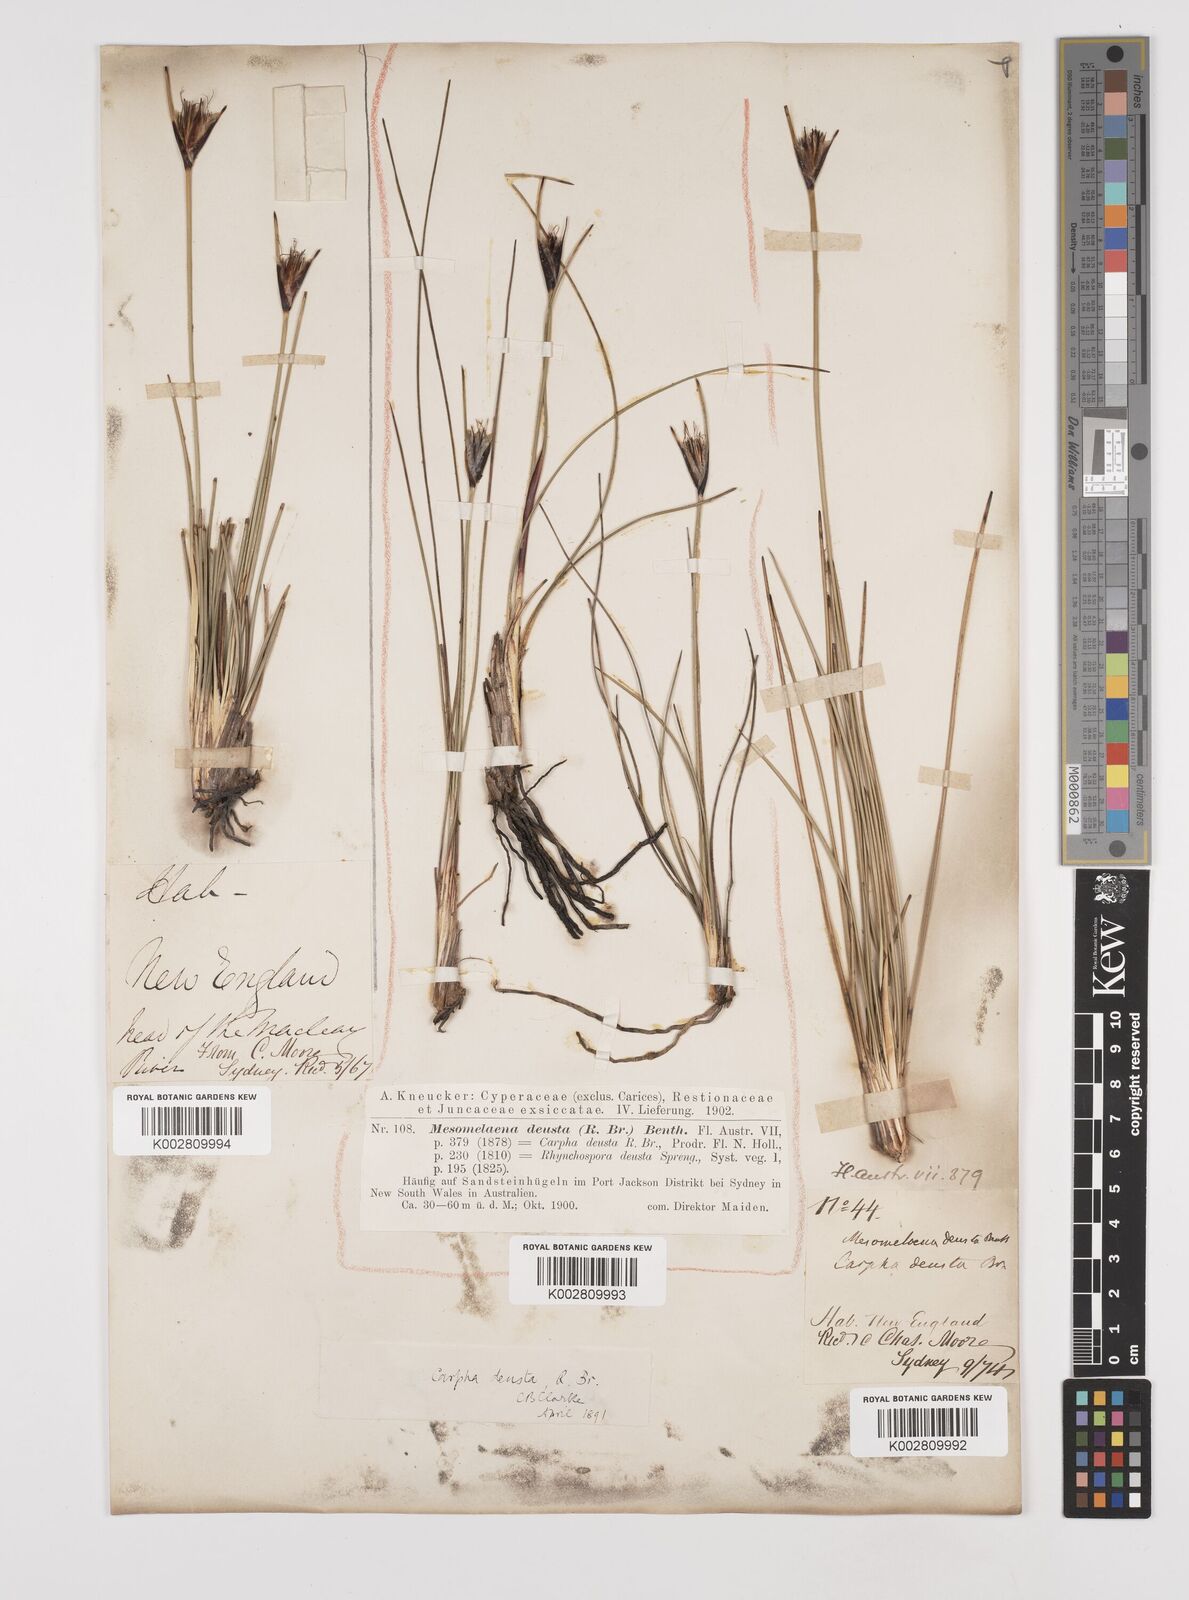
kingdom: Plantae
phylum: Tracheophyta
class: Liliopsida
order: Poales
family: Cyperaceae
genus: Ptilothrix
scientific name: Ptilothrix deusta
